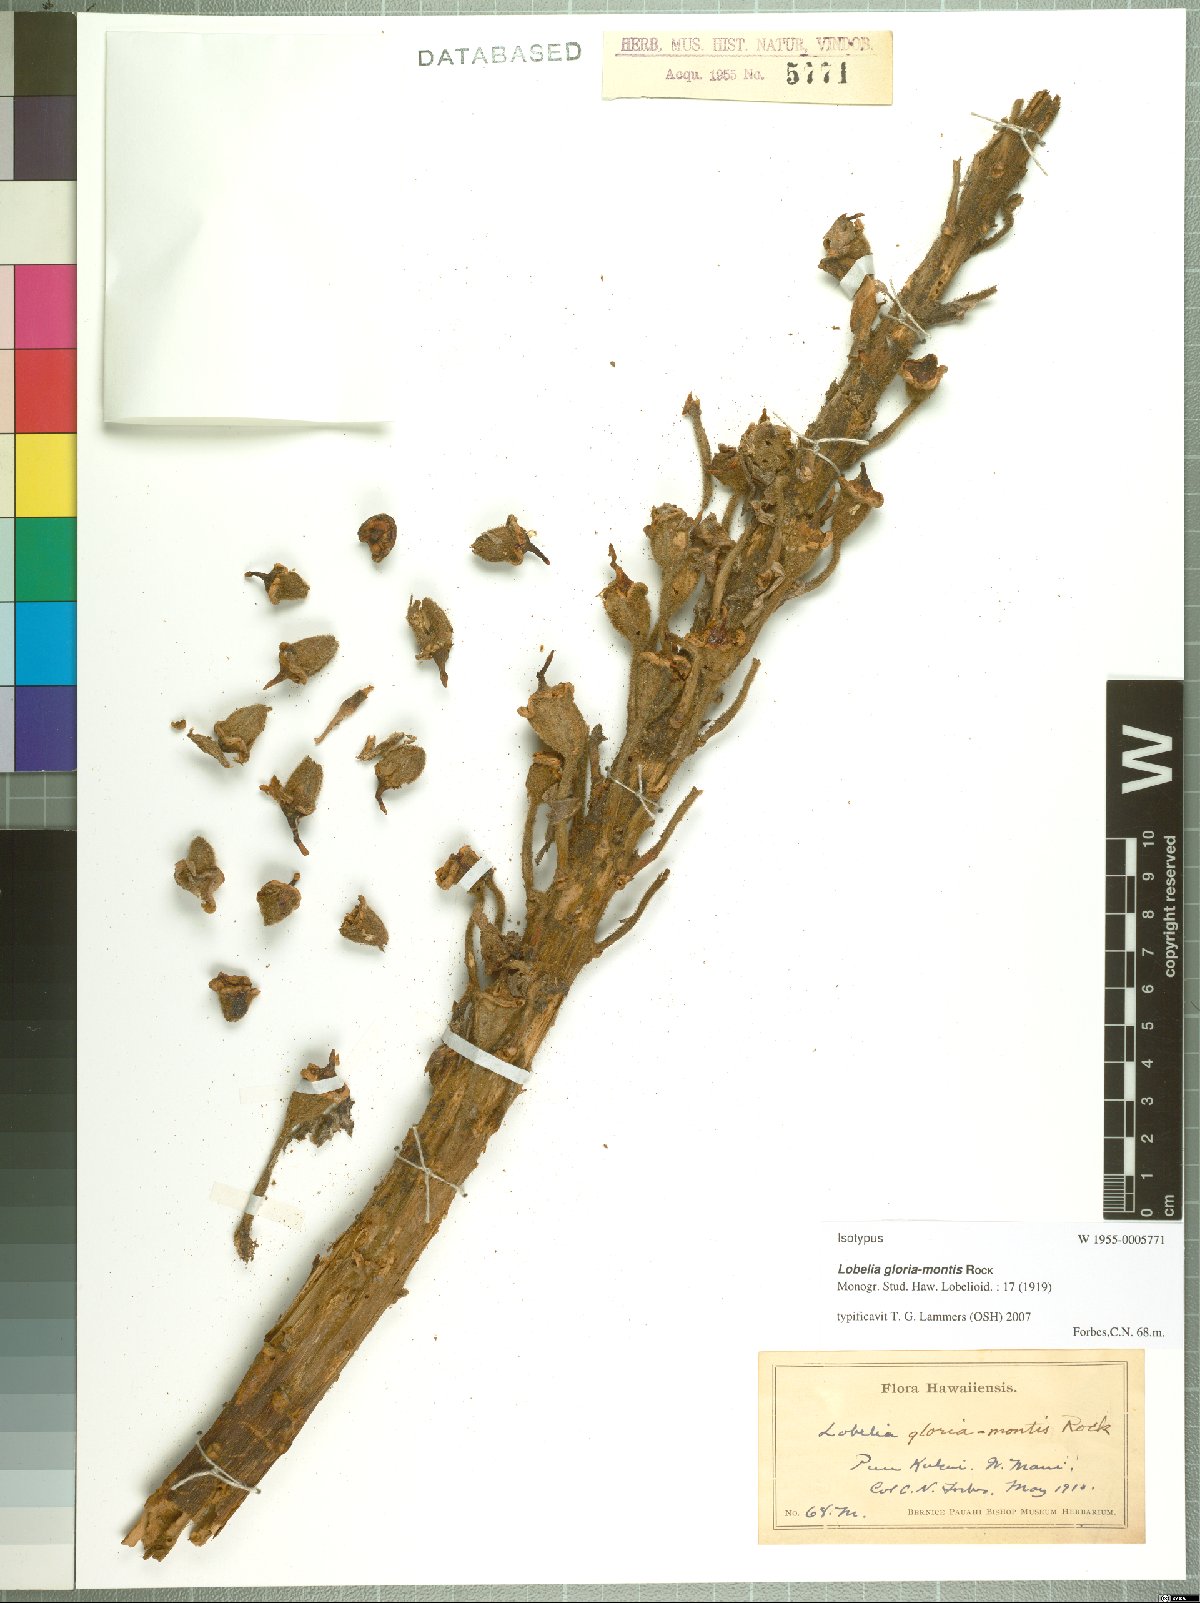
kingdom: Plantae
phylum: Tracheophyta
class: Magnoliopsida
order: Asterales
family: Campanulaceae
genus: Lobelia
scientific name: Lobelia gloria-montis
